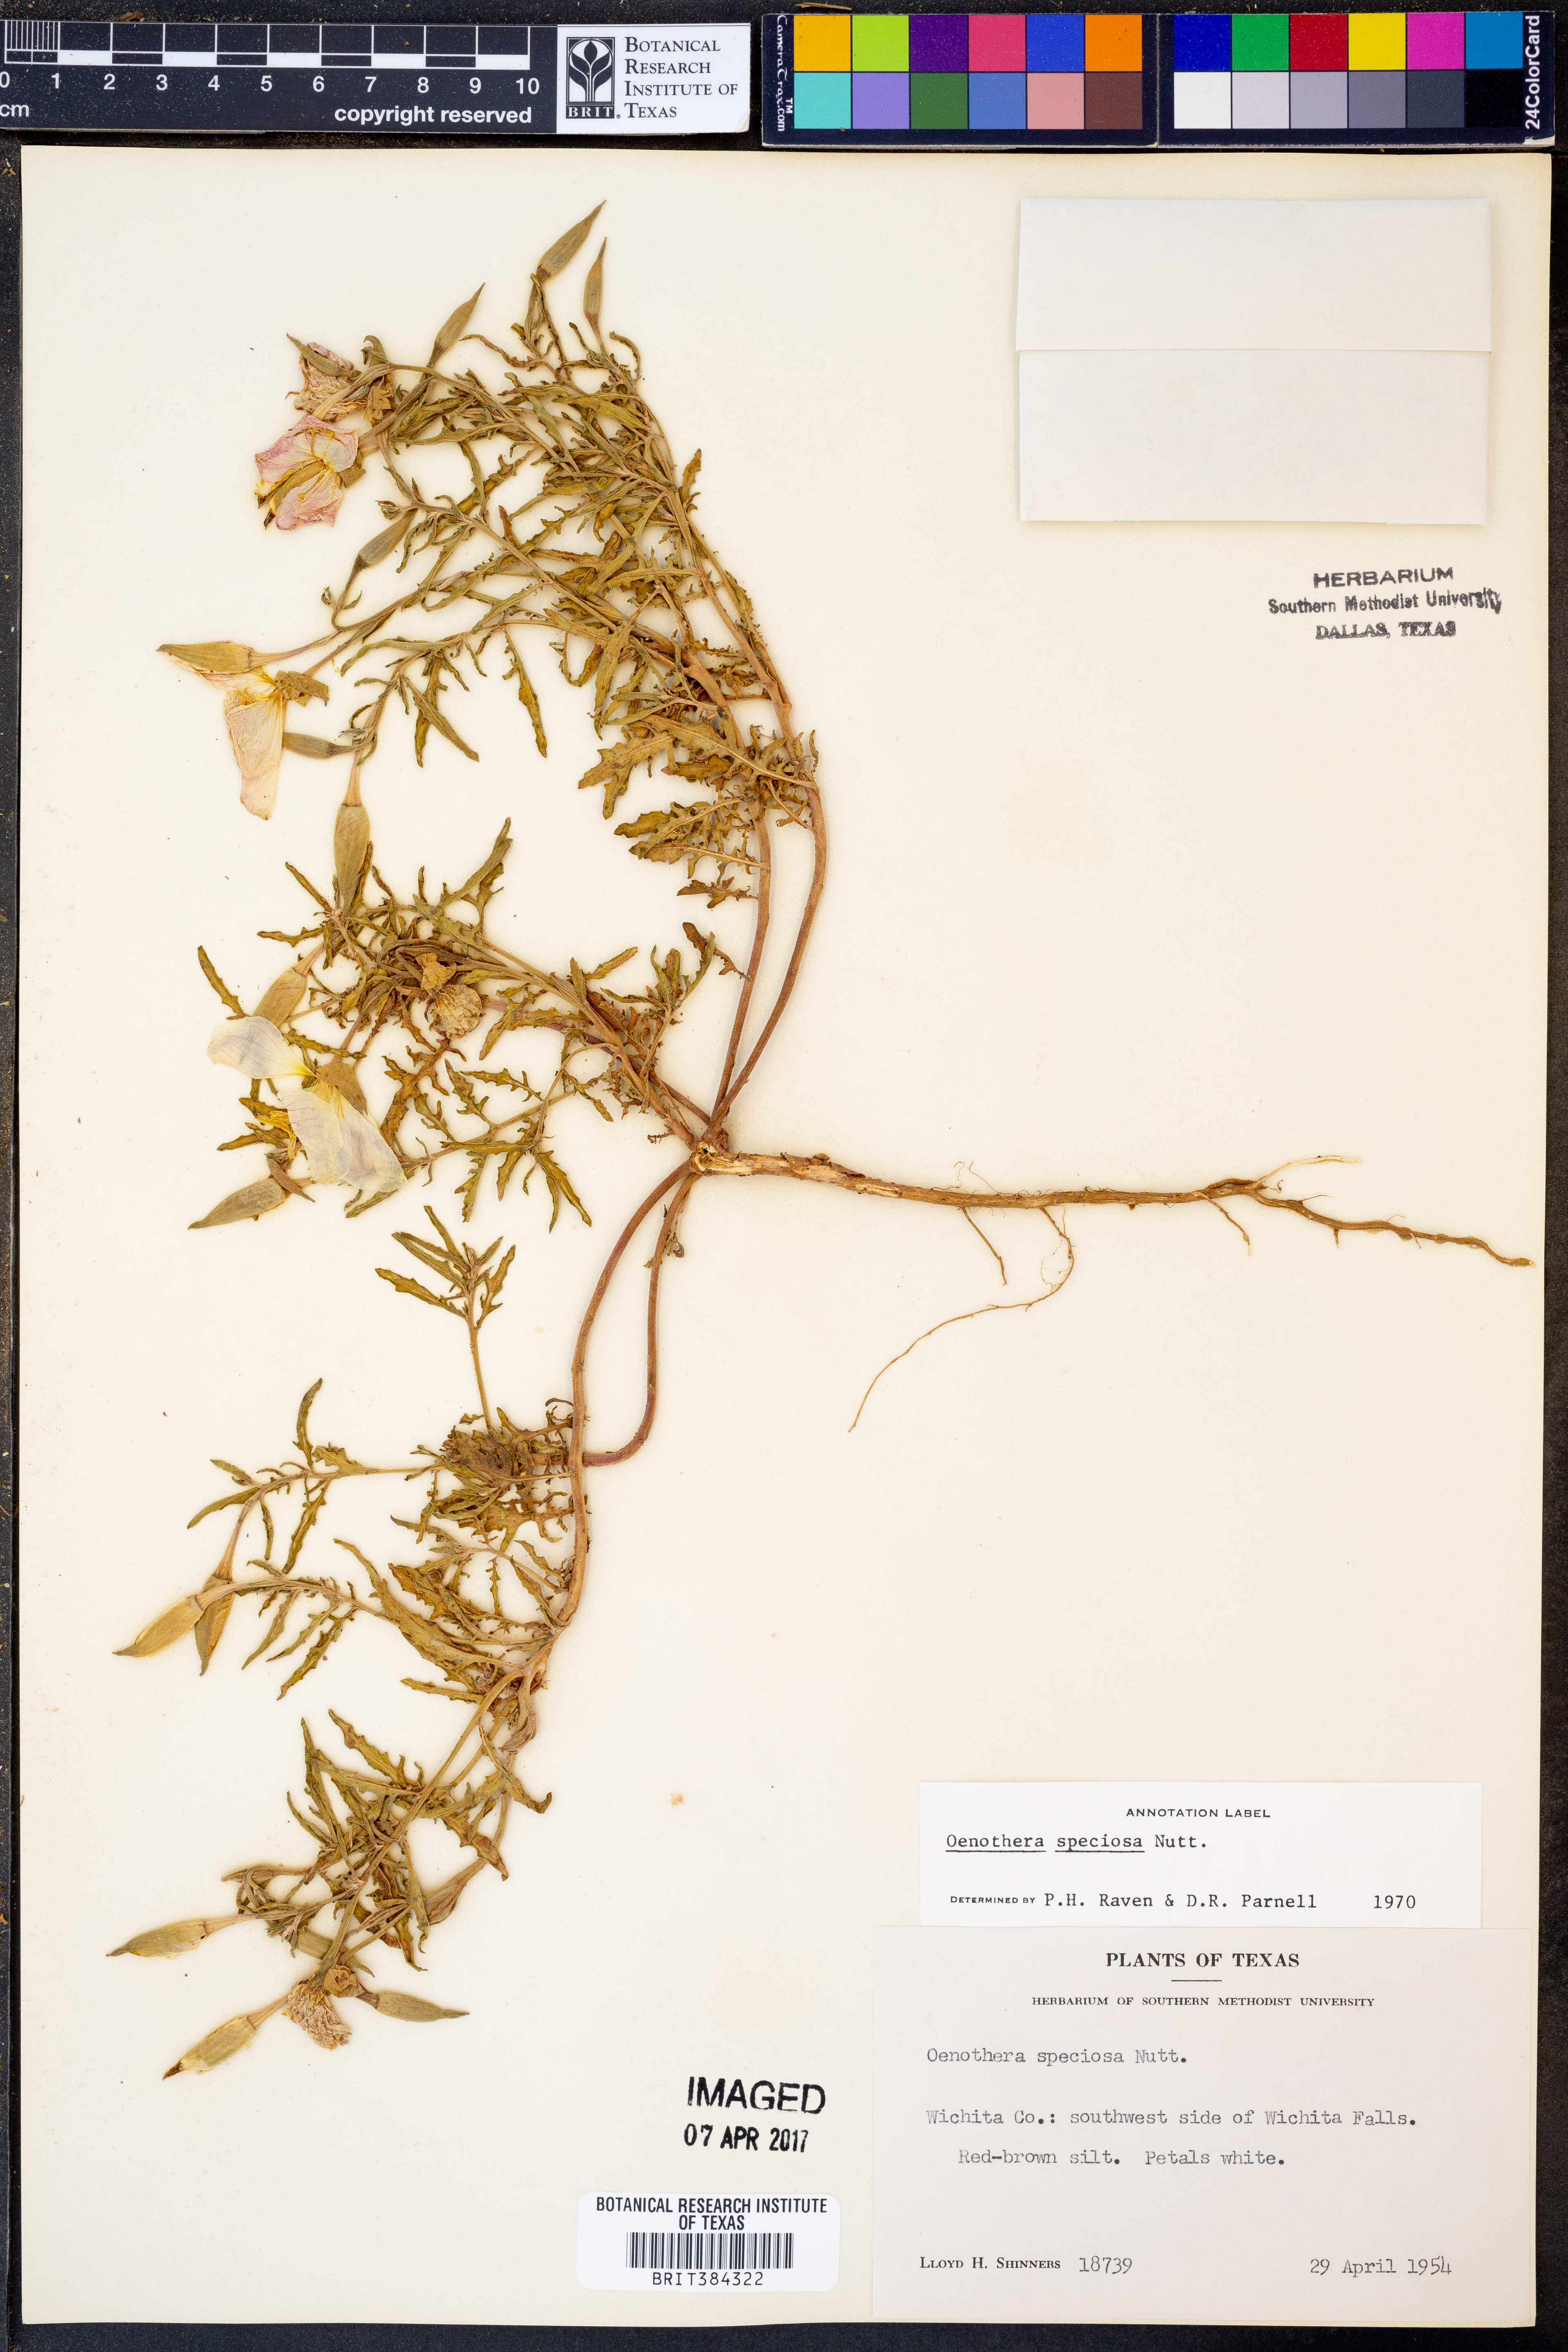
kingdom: Plantae
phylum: Tracheophyta
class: Magnoliopsida
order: Myrtales
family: Onagraceae
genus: Oenothera
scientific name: Oenothera speciosa
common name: White evening-primrose
